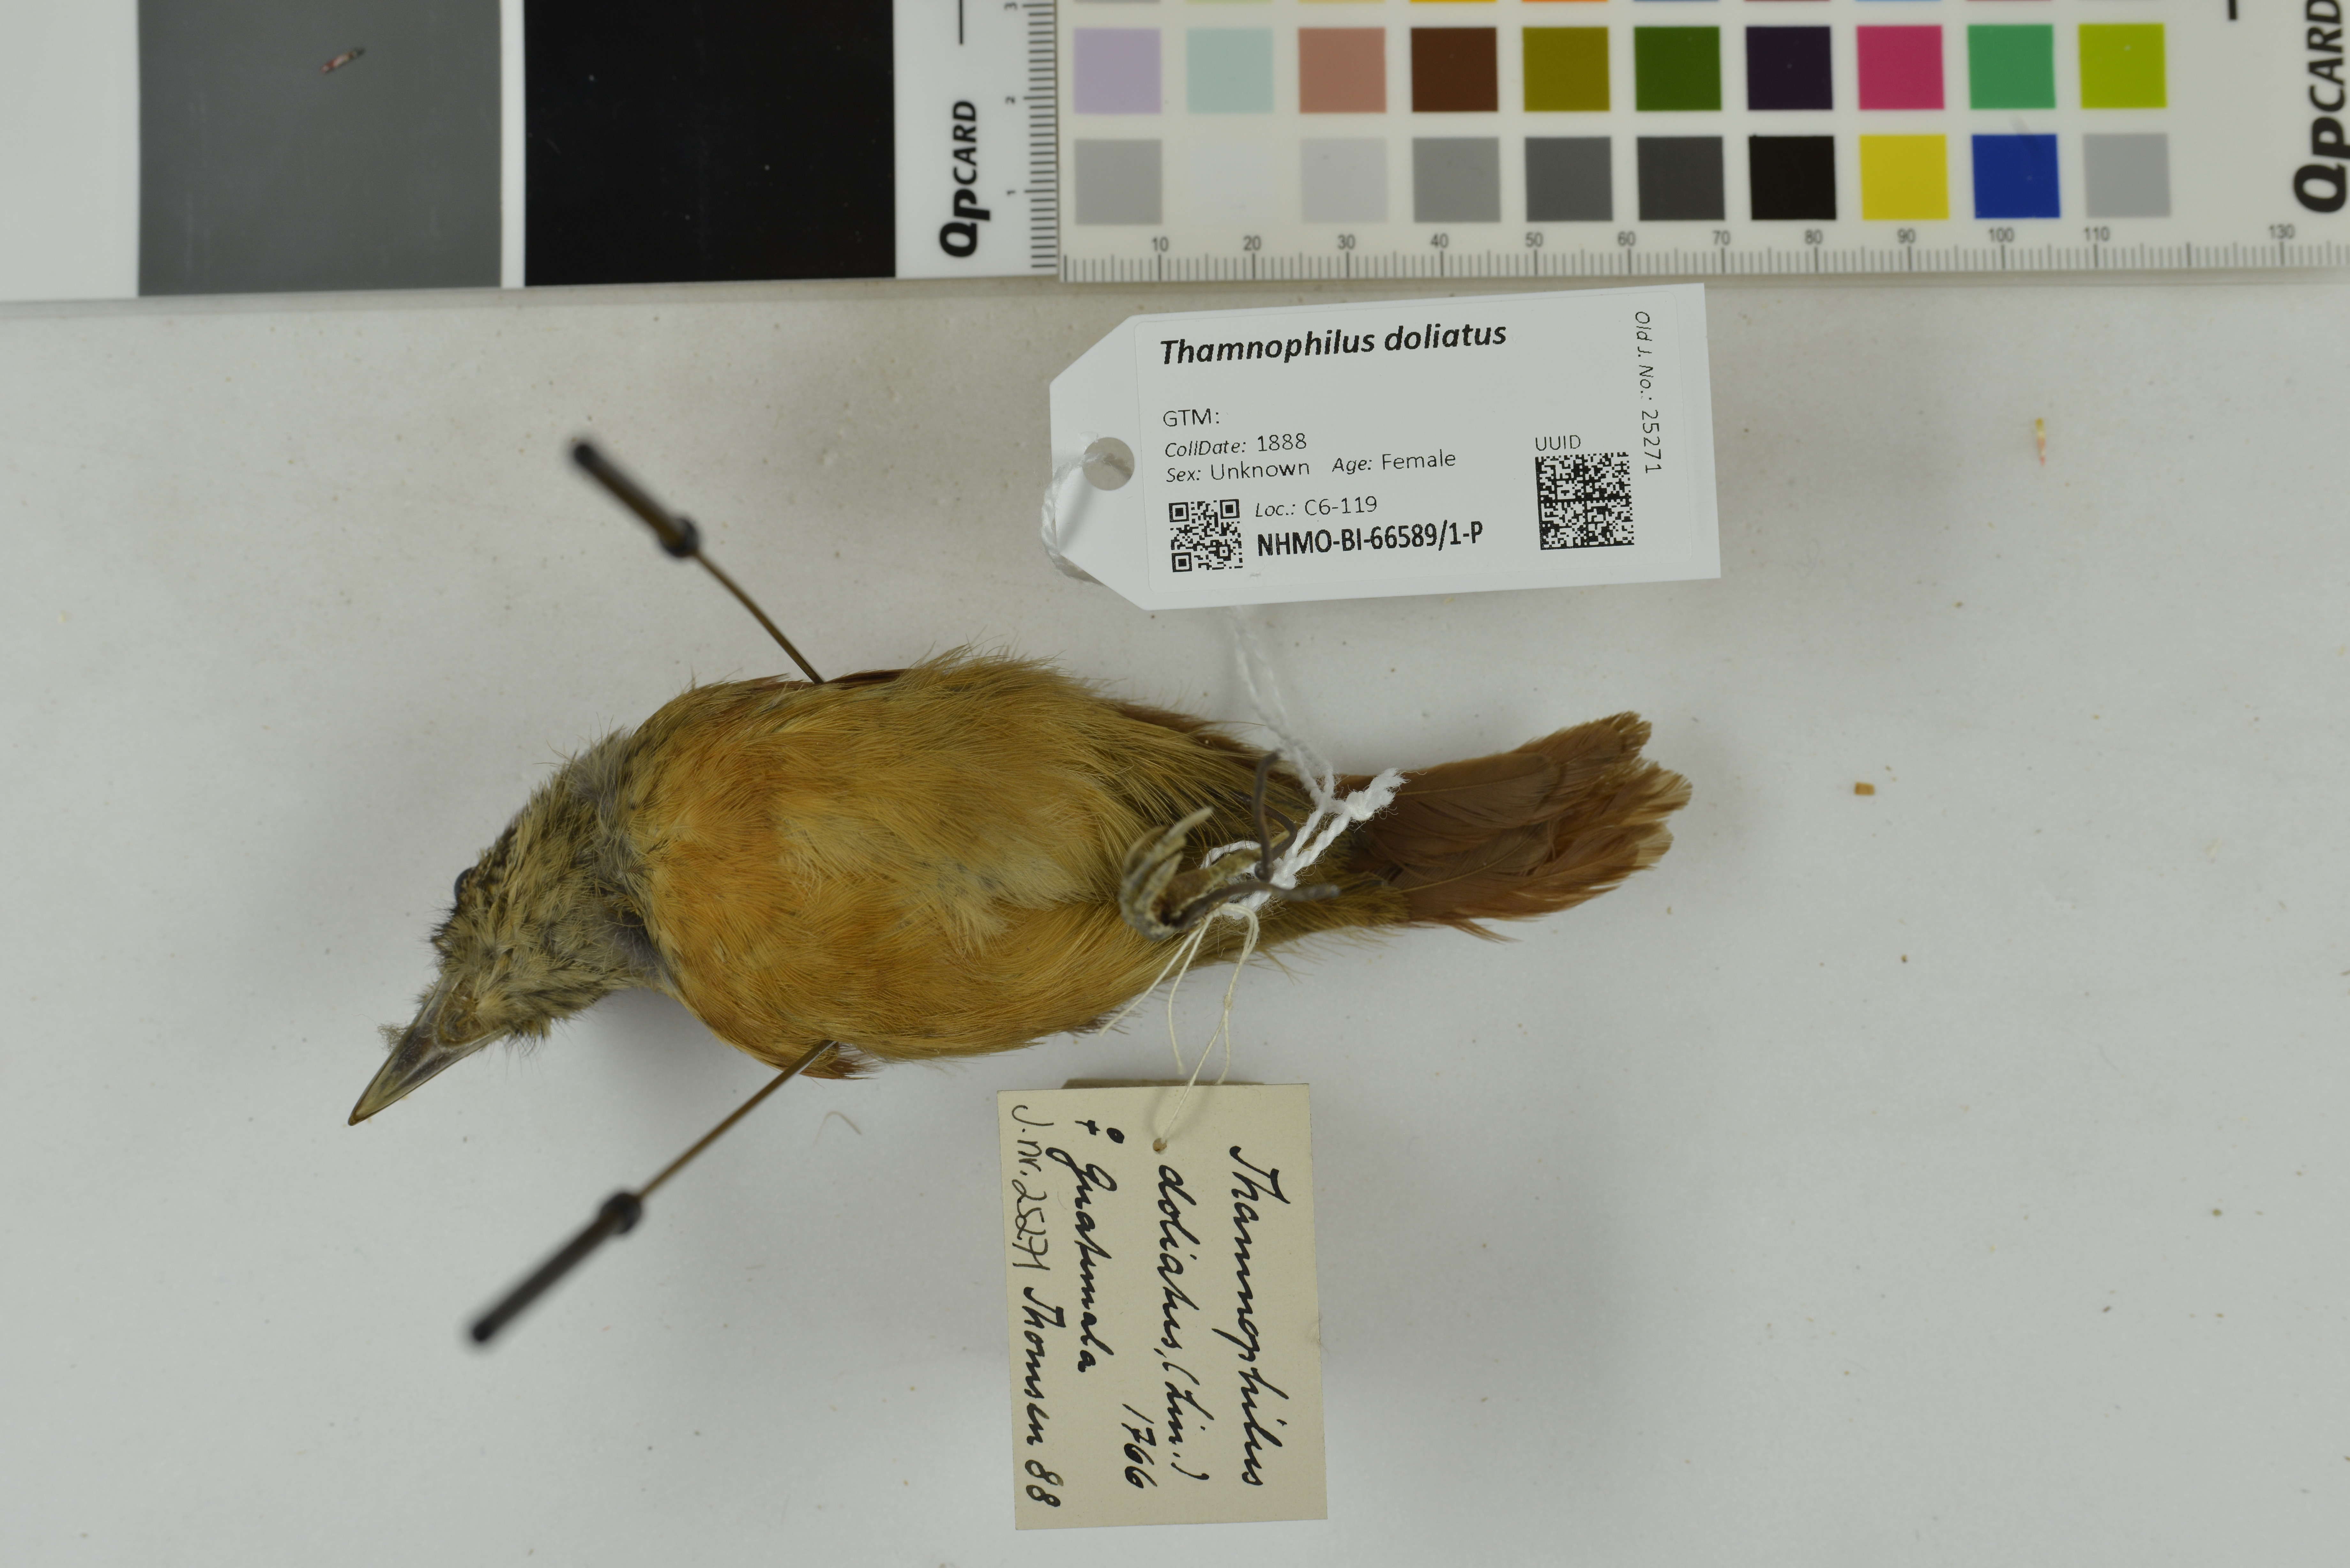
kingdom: Animalia
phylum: Chordata
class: Aves
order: Passeriformes
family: Thamnophilidae
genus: Thamnophilus
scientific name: Thamnophilus doliatus
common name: Barred antshrike
